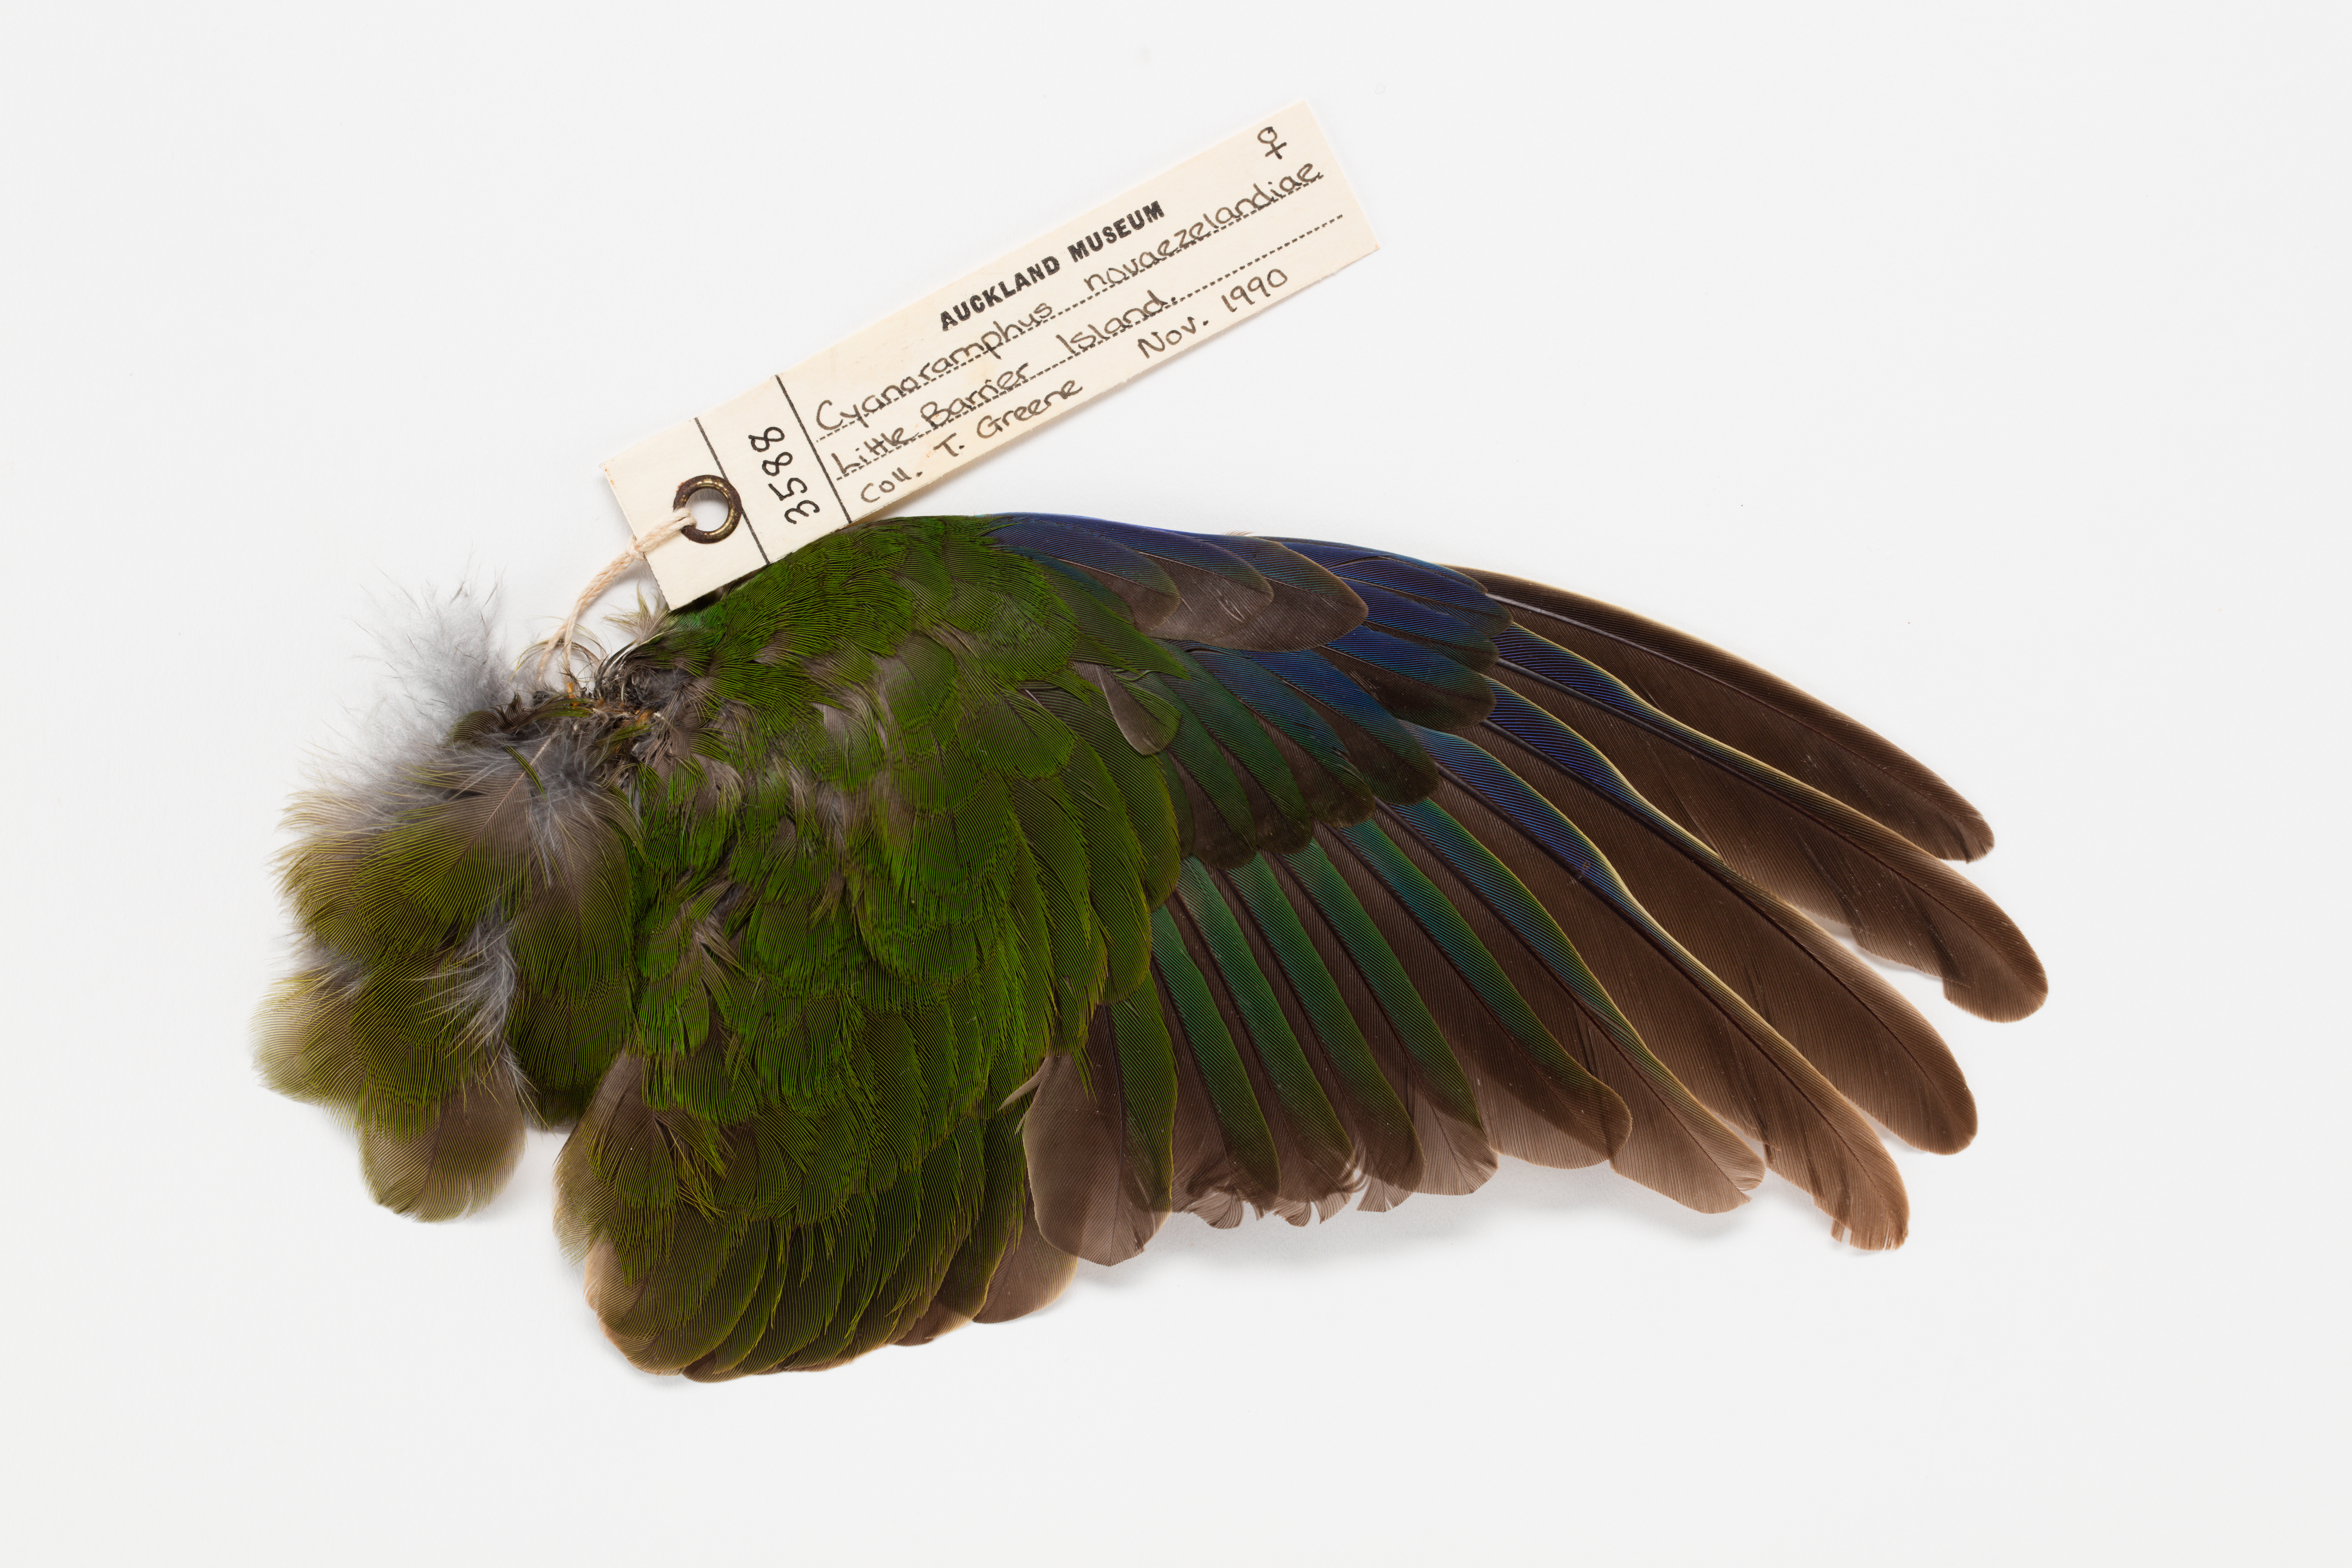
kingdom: Animalia
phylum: Chordata
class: Aves
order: Psittaciformes
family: Psittacidae
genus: Cyanoramphus
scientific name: Cyanoramphus novaezelandiae
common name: Red-fronted parakeet
